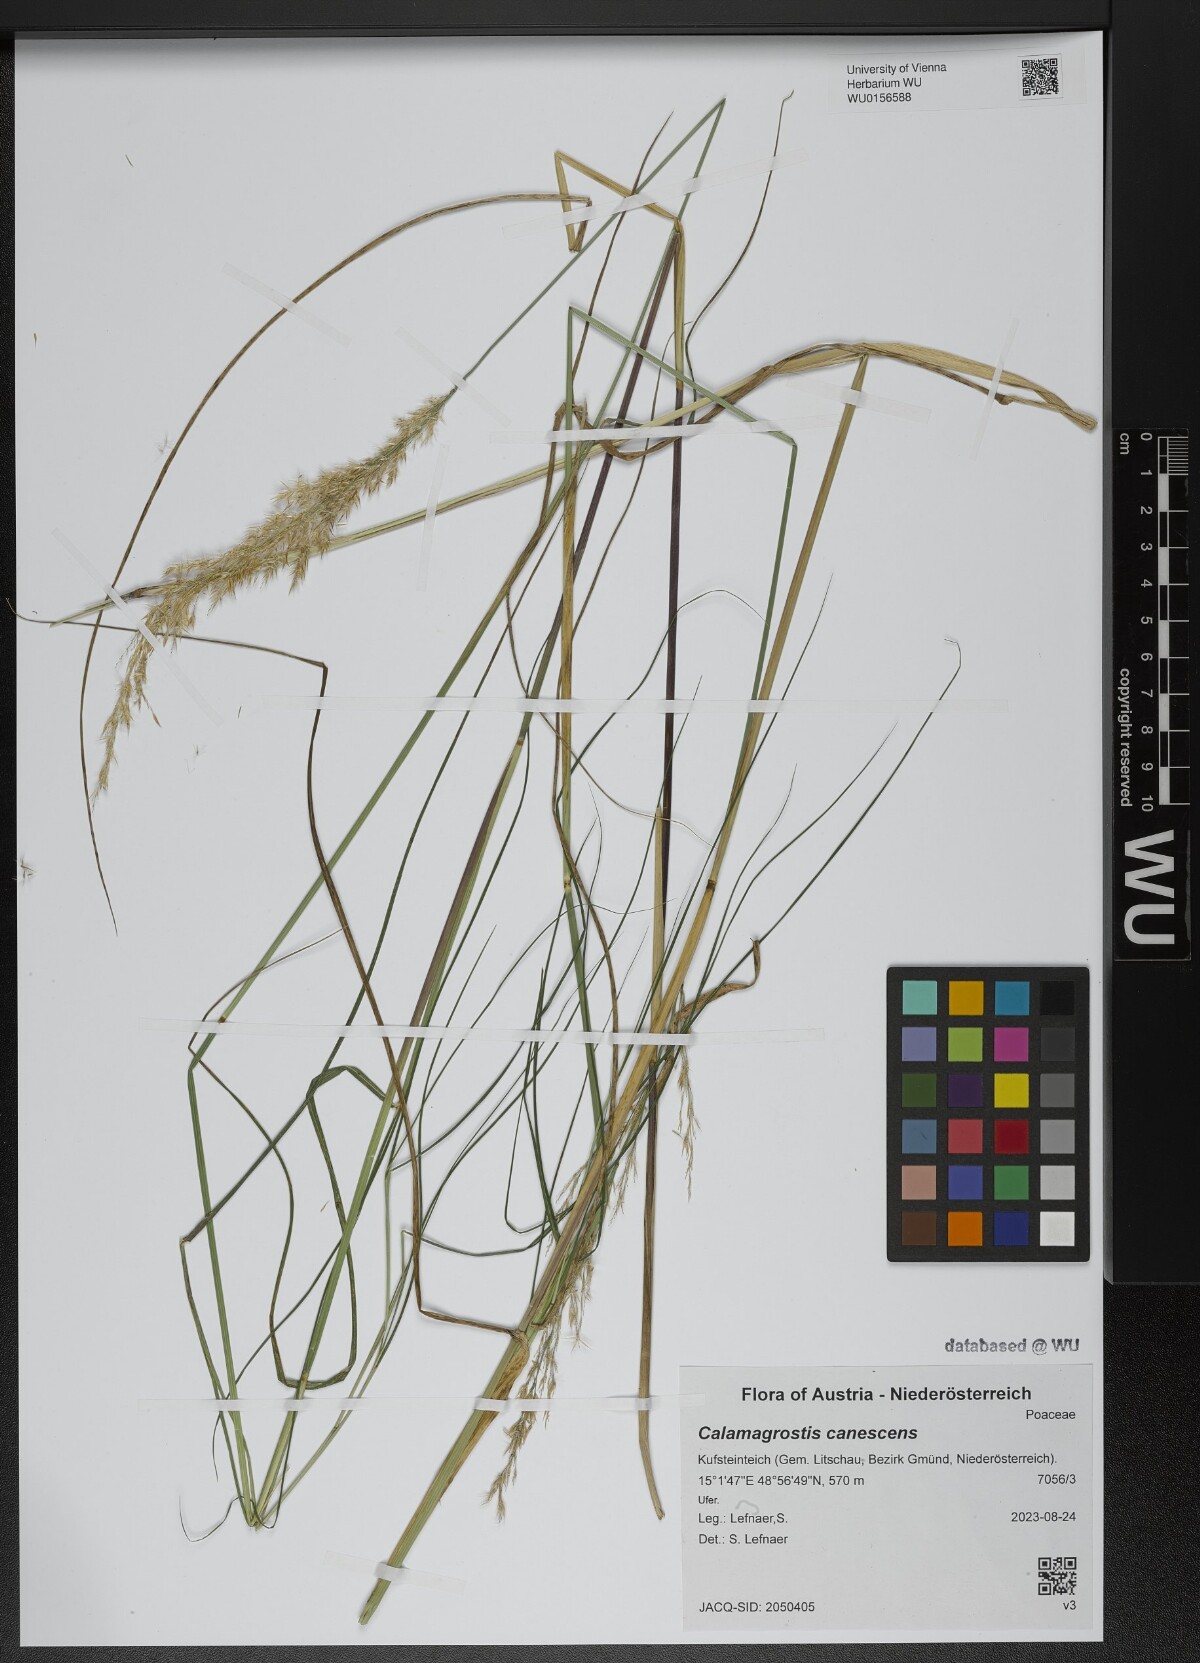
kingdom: Plantae
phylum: Tracheophyta
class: Liliopsida
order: Poales
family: Poaceae
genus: Calamagrostis
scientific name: Calamagrostis canescens
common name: Purple small-reed
